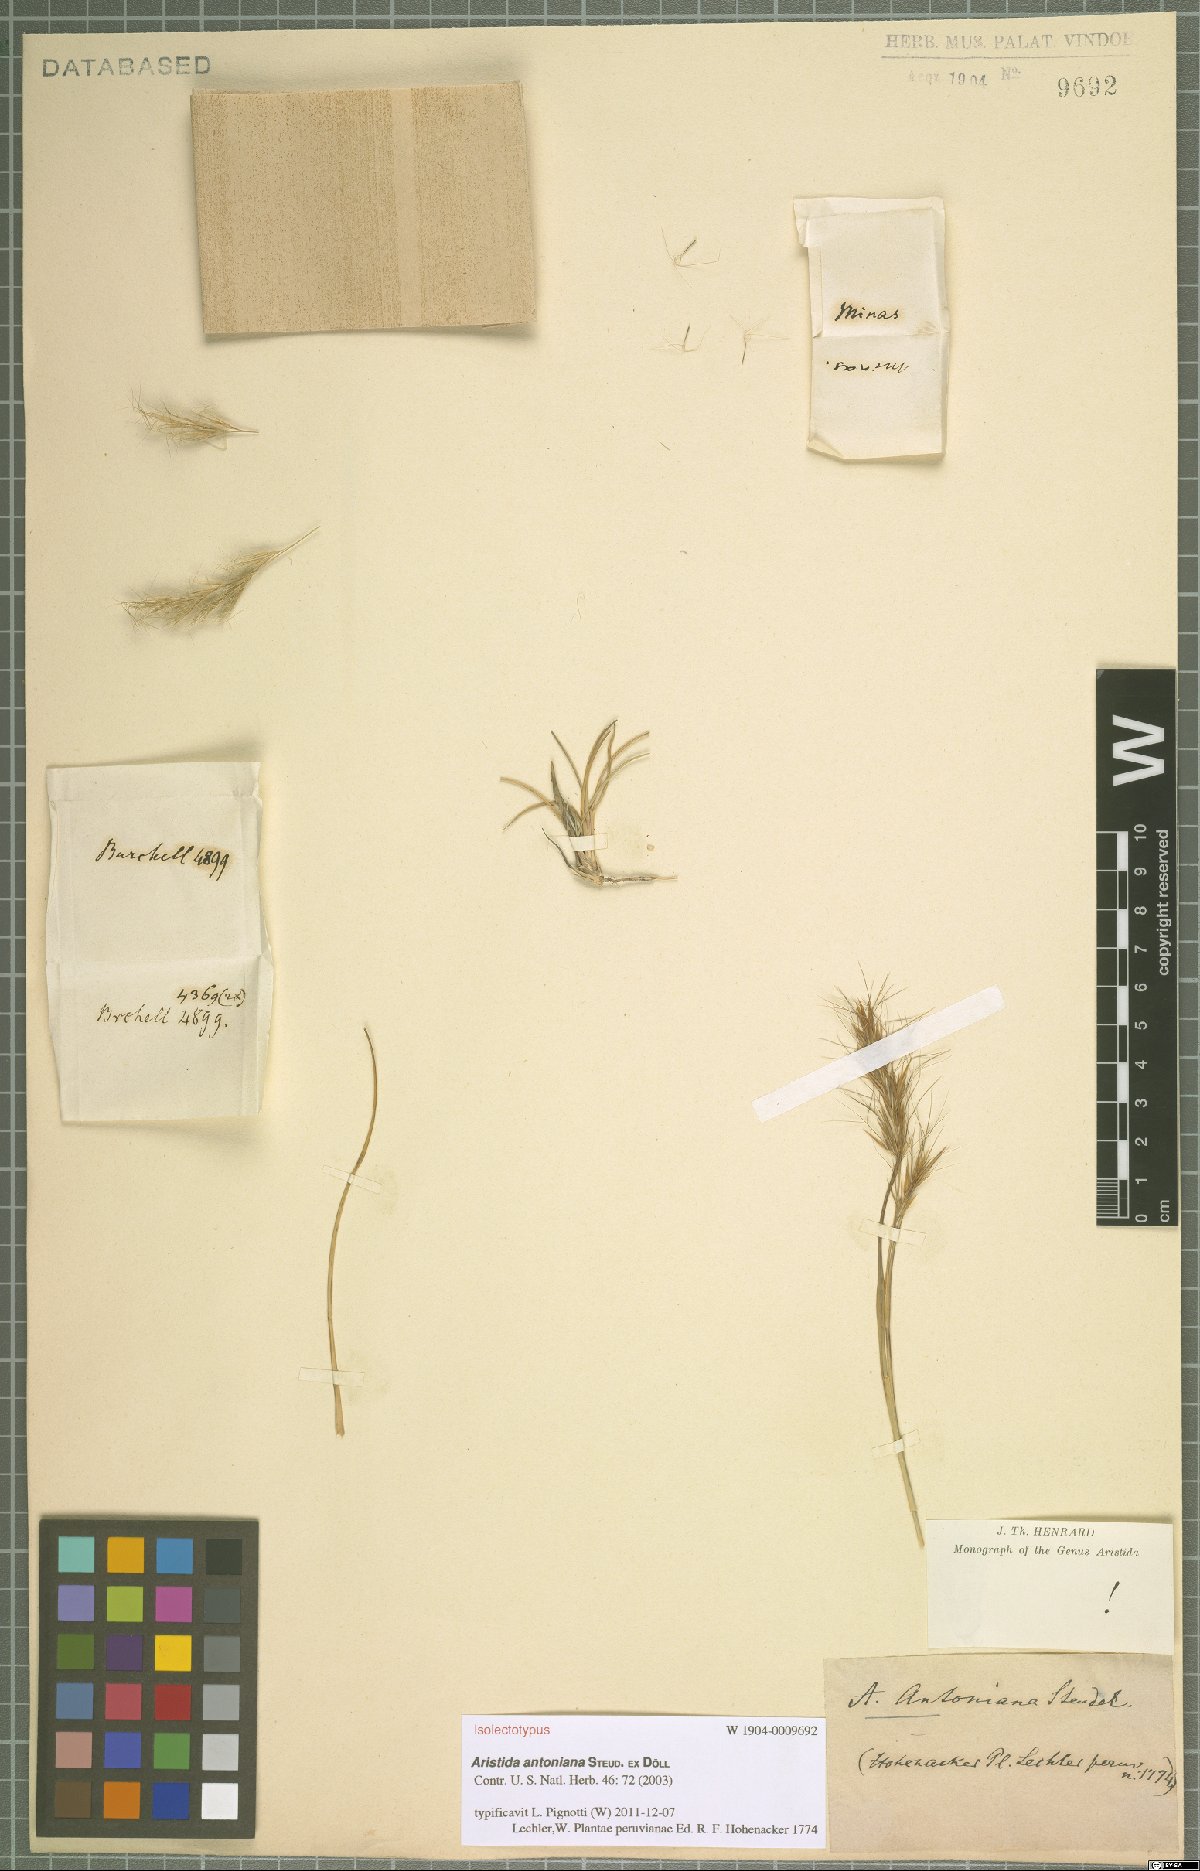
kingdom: Plantae
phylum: Tracheophyta
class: Liliopsida
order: Poales
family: Poaceae
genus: Aristida
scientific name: Aristida antoniana
